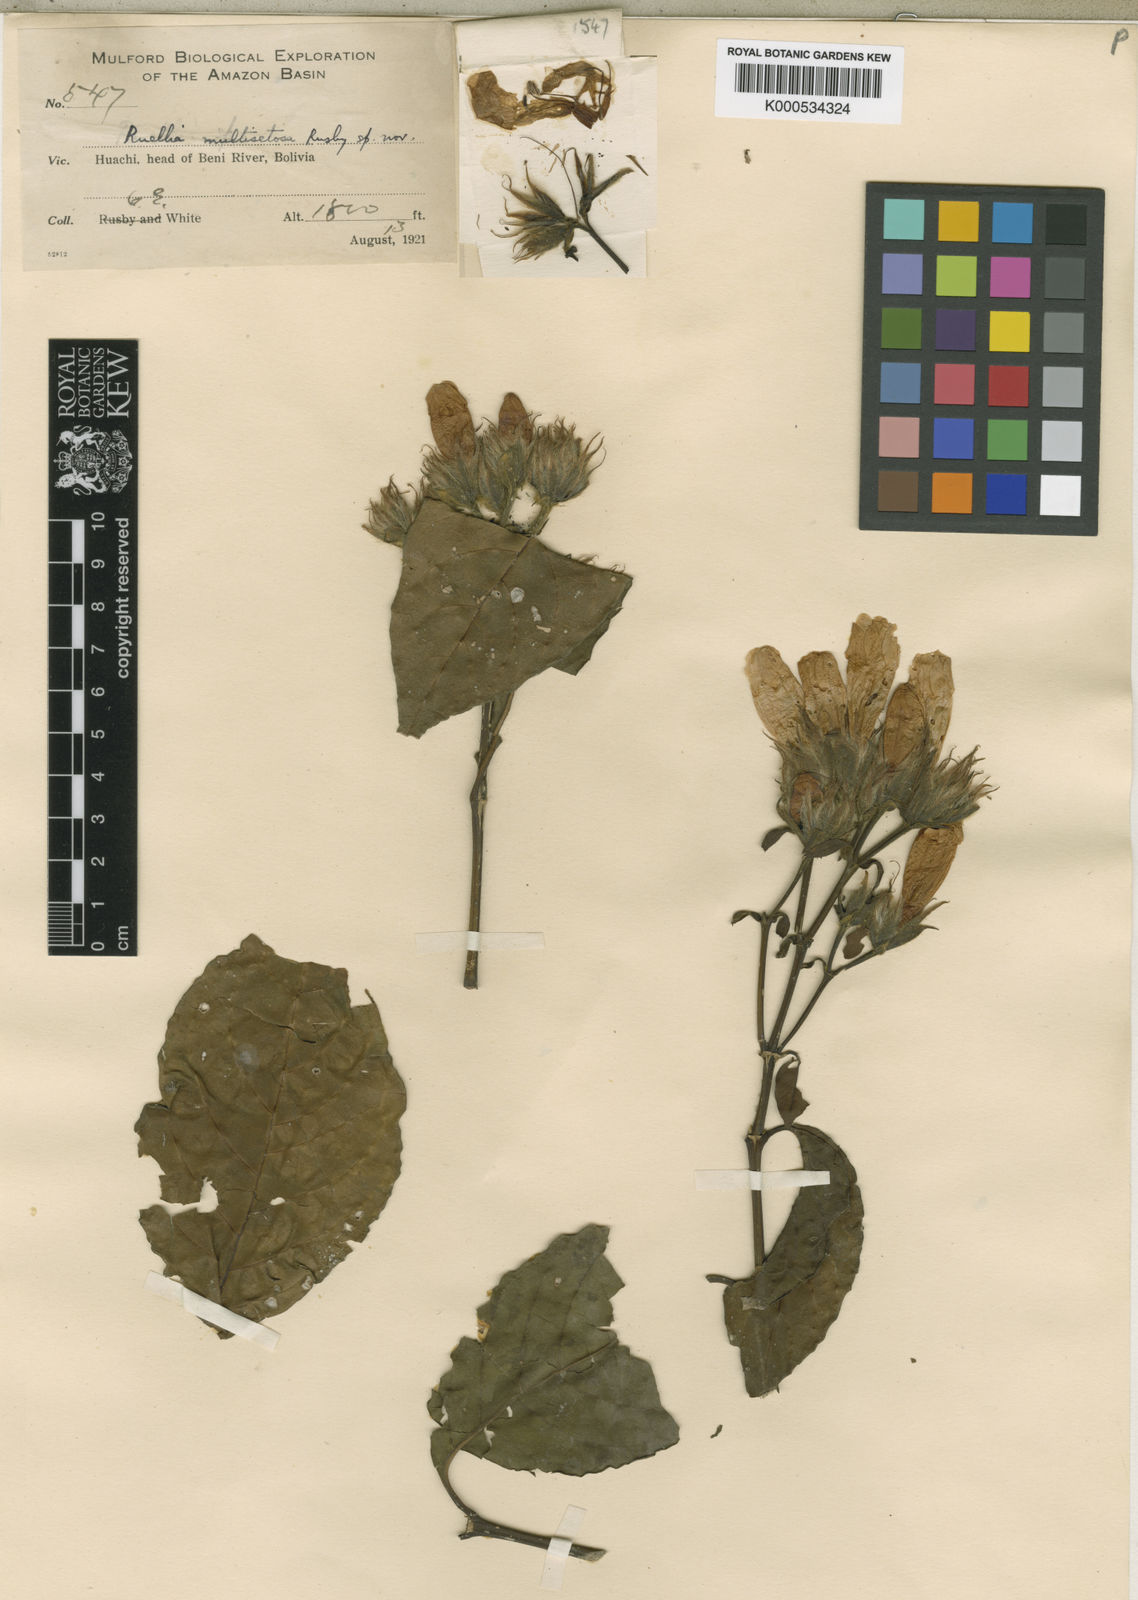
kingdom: Plantae
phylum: Tracheophyta
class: Magnoliopsida
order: Lamiales
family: Acanthaceae
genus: Suessenguthia
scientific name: Suessenguthia
